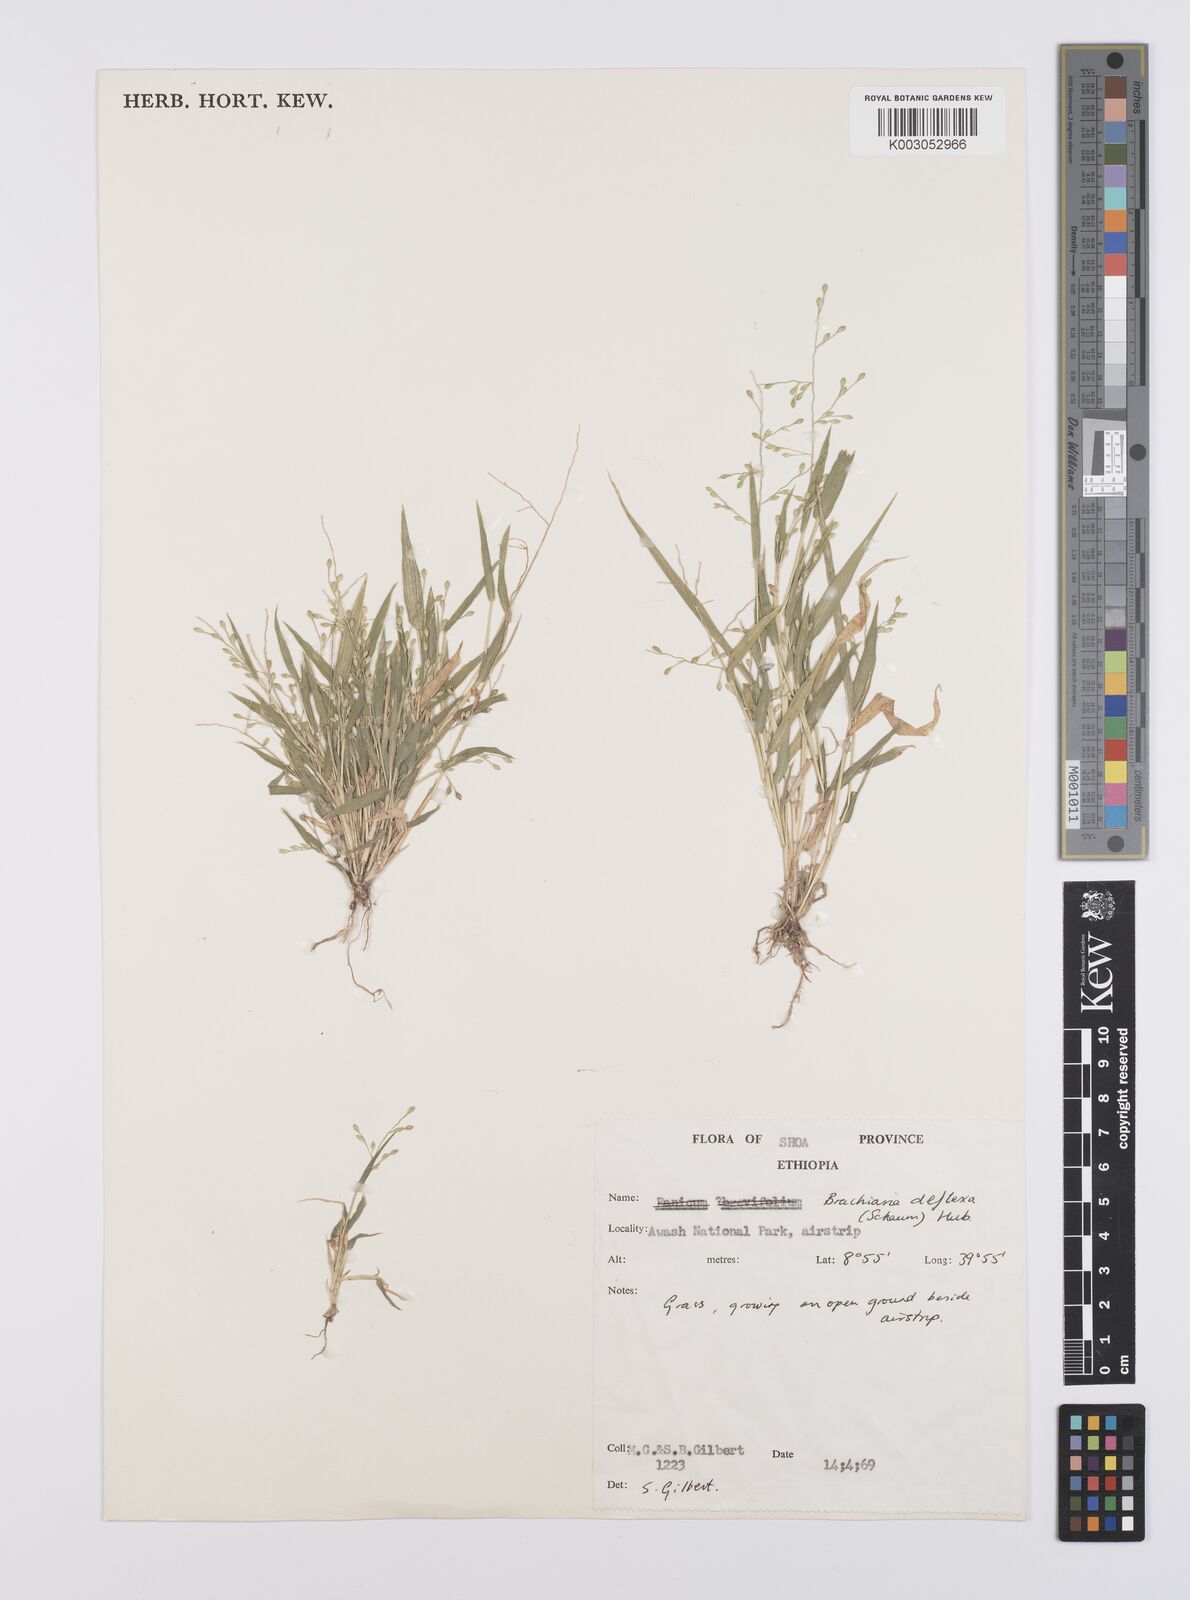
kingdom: Plantae
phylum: Tracheophyta
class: Liliopsida
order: Poales
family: Poaceae
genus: Urochloa
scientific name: Urochloa deflexa
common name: Guinea millet
